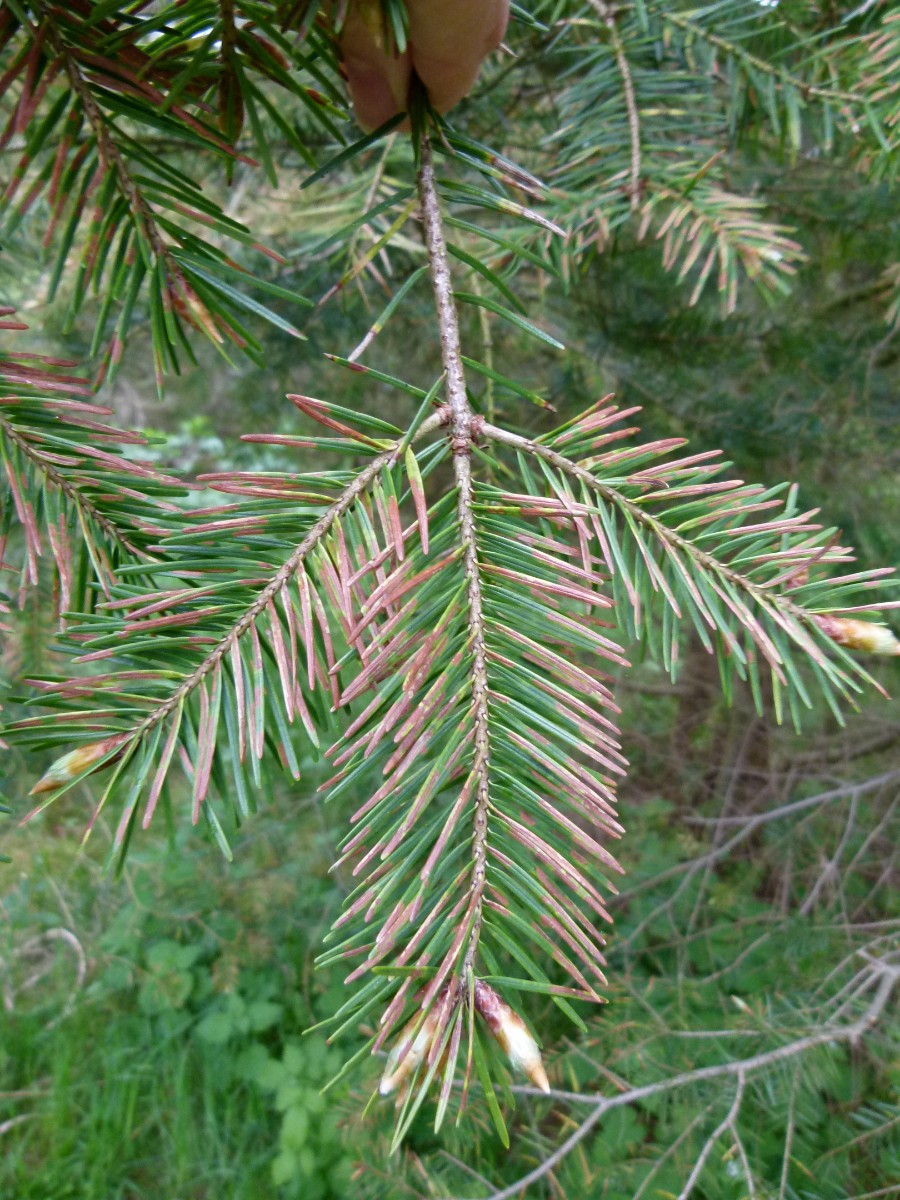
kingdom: Fungi
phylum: Ascomycota
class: Leotiomycetes
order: Helotiales
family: Cenangiaceae
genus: Rhabdocline
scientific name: Rhabdocline pseudotsugae
